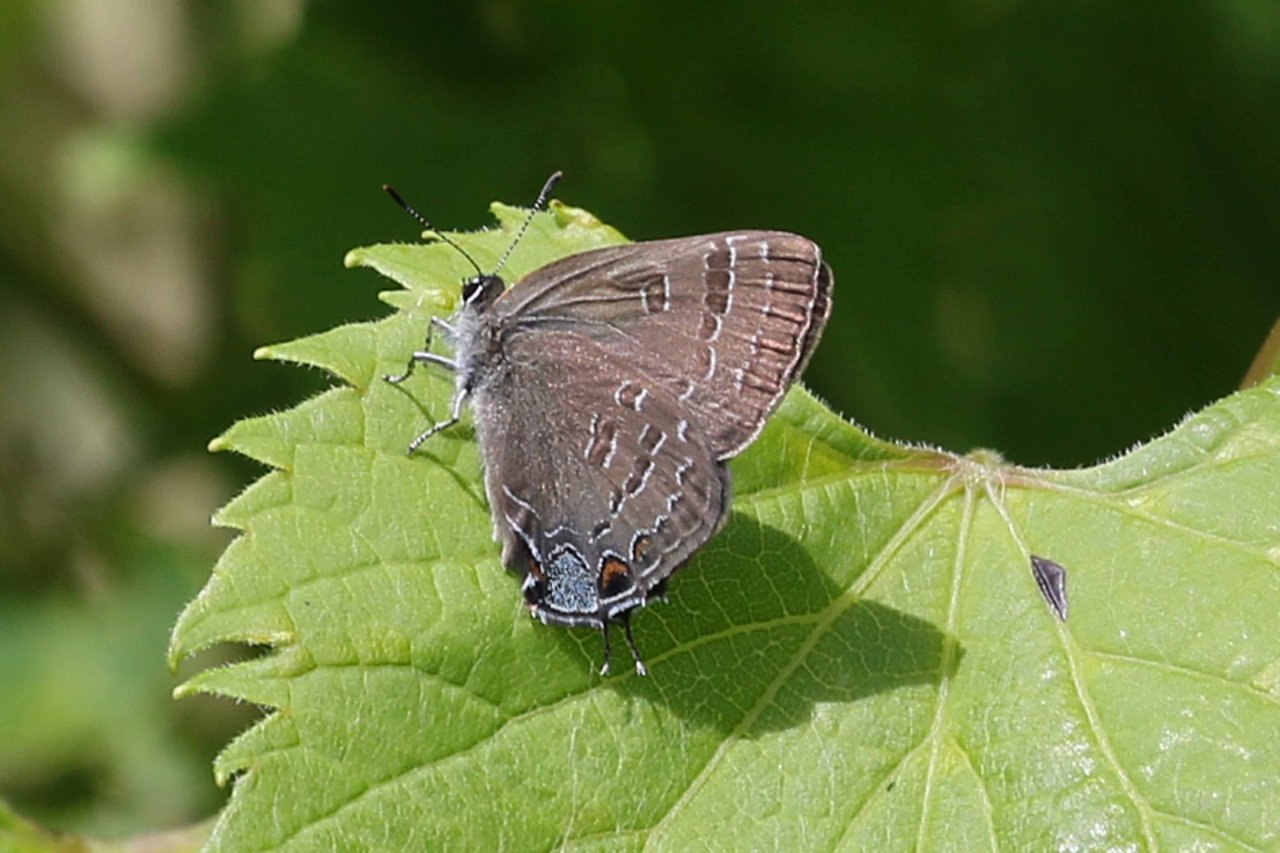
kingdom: Animalia
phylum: Arthropoda
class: Insecta
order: Lepidoptera
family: Lycaenidae
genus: Satyrium
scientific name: Satyrium calanus
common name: Banded Hairstreak
